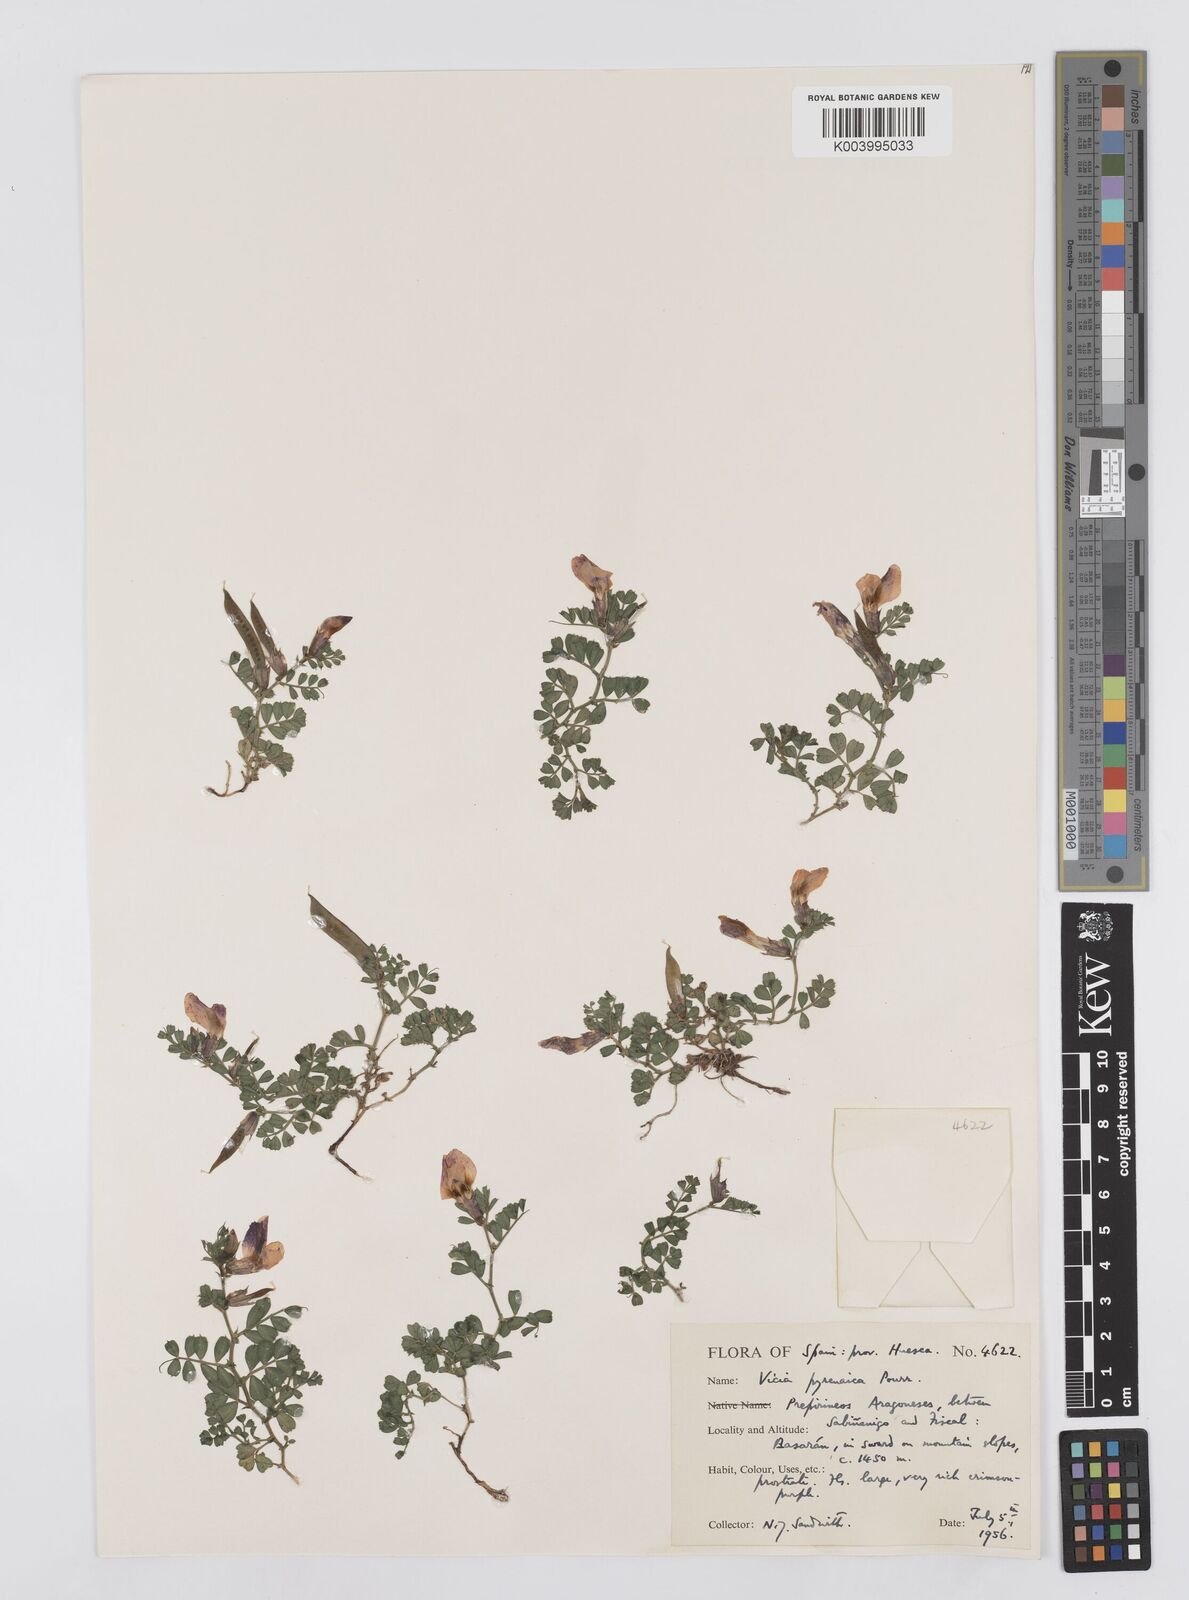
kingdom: Plantae
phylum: Tracheophyta
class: Magnoliopsida
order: Fabales
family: Fabaceae
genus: Vicia
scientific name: Vicia pyrenaica
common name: Pyrenean vetch
